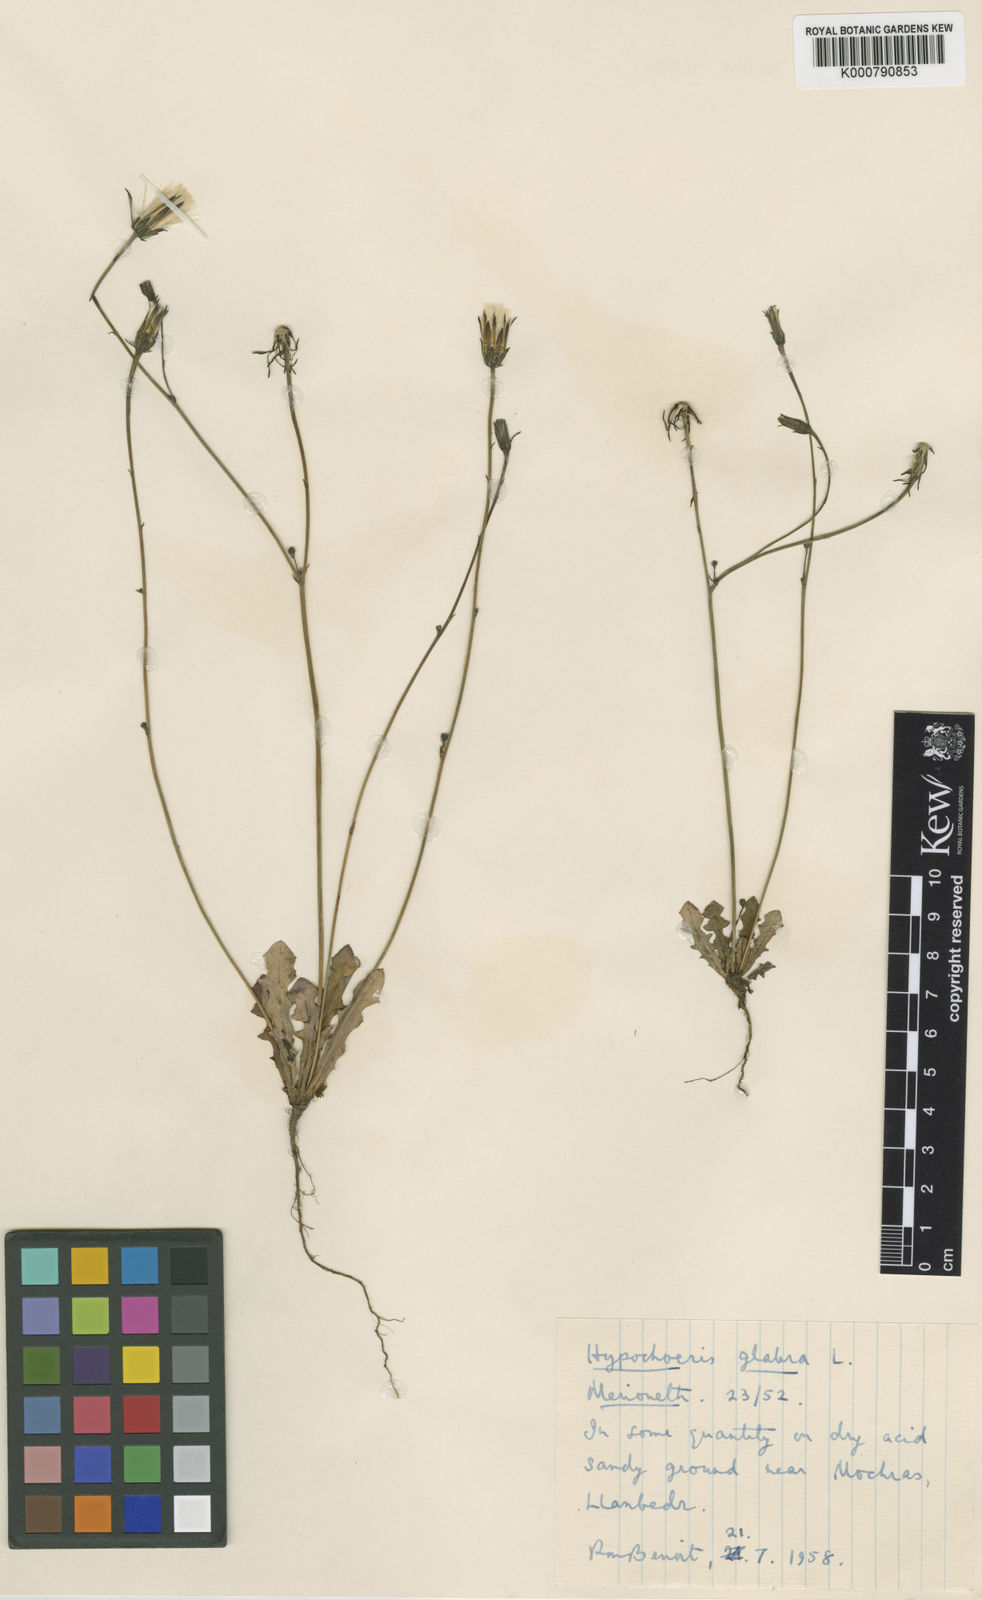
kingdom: Plantae
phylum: Tracheophyta
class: Magnoliopsida
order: Asterales
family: Asteraceae
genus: Hypochaeris
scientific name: Hypochaeris glabra
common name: Smooth catsear
